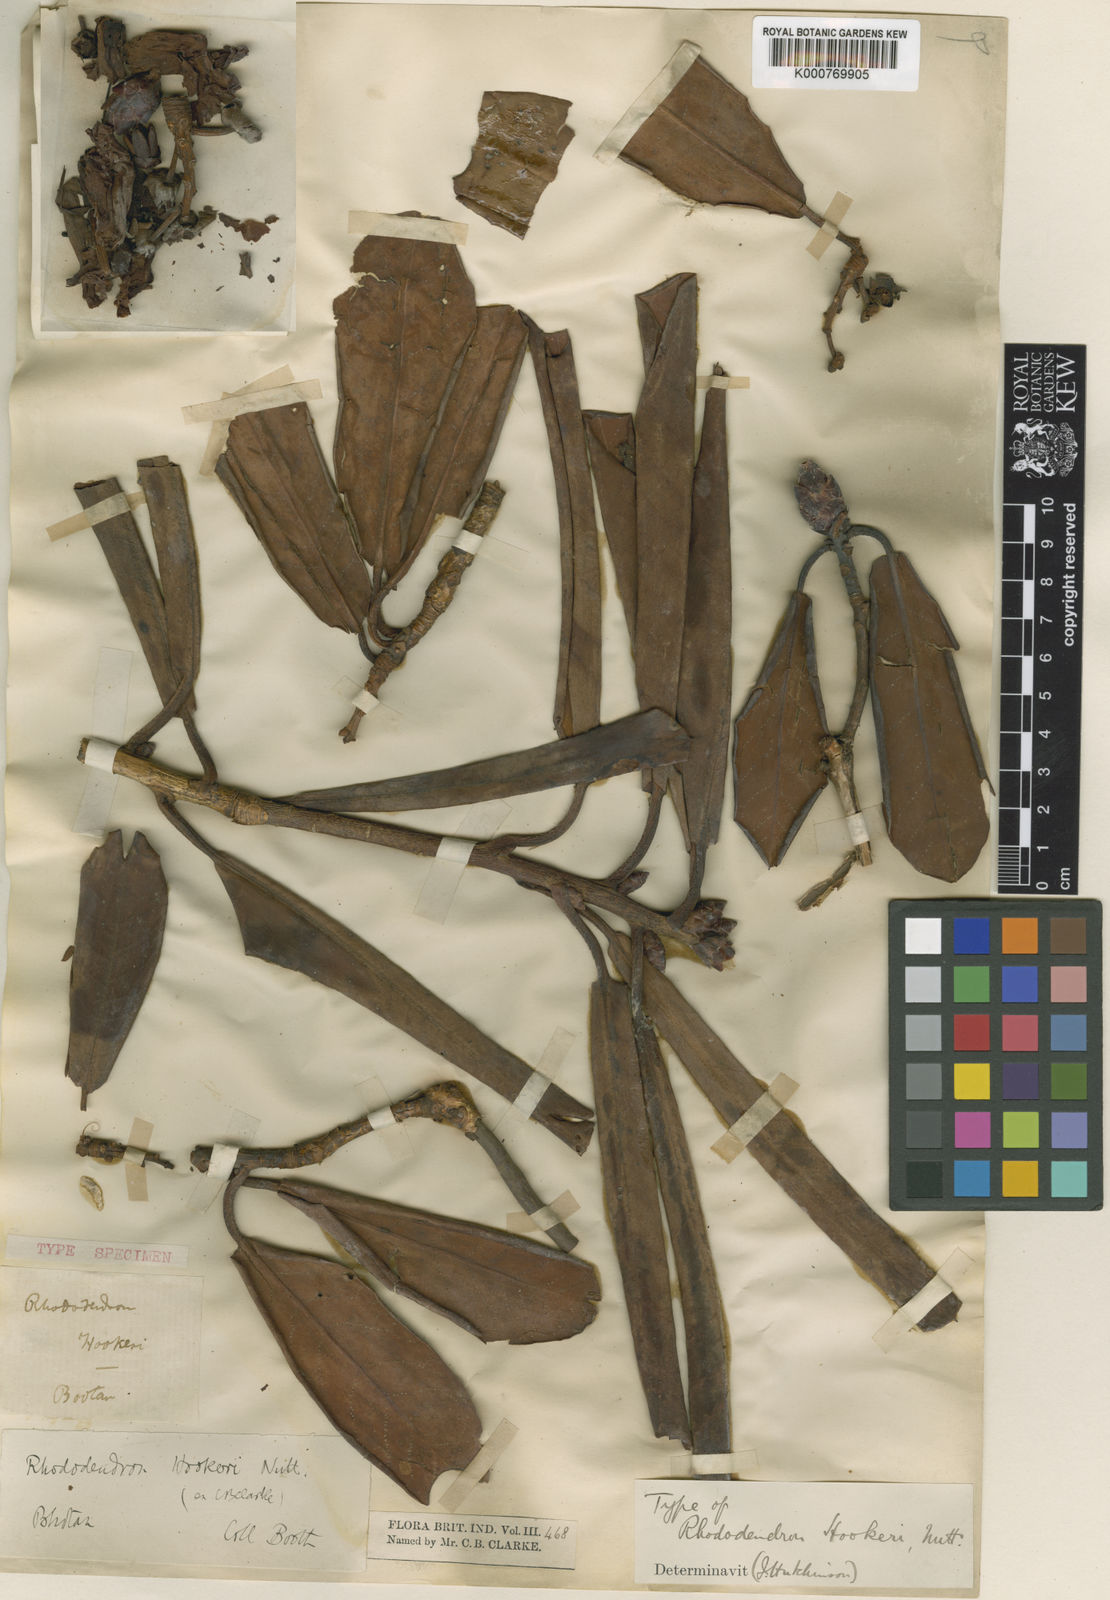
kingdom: Plantae
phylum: Tracheophyta
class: Magnoliopsida
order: Ericales
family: Ericaceae
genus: Rhododendron
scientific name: Rhododendron
